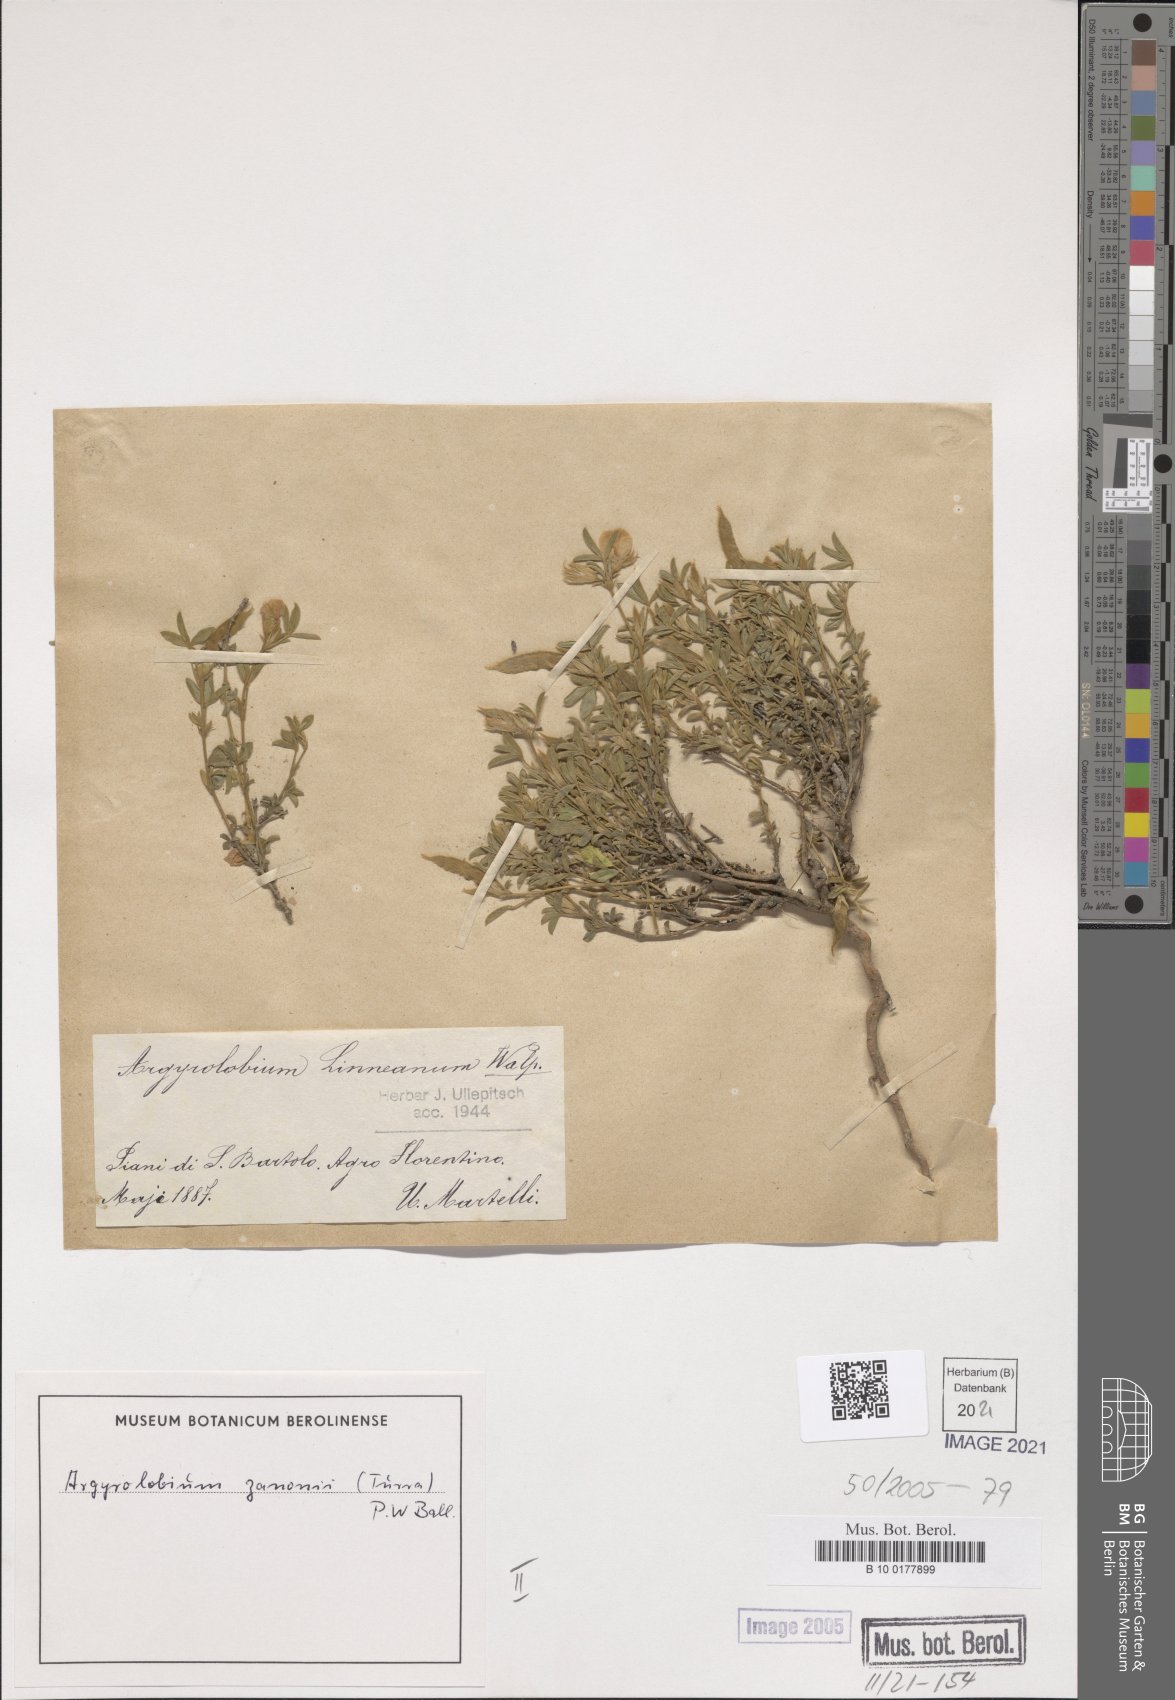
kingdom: Plantae
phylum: Tracheophyta
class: Magnoliopsida
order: Fabales
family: Fabaceae
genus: Argyrolobium
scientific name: Argyrolobium zanonii
